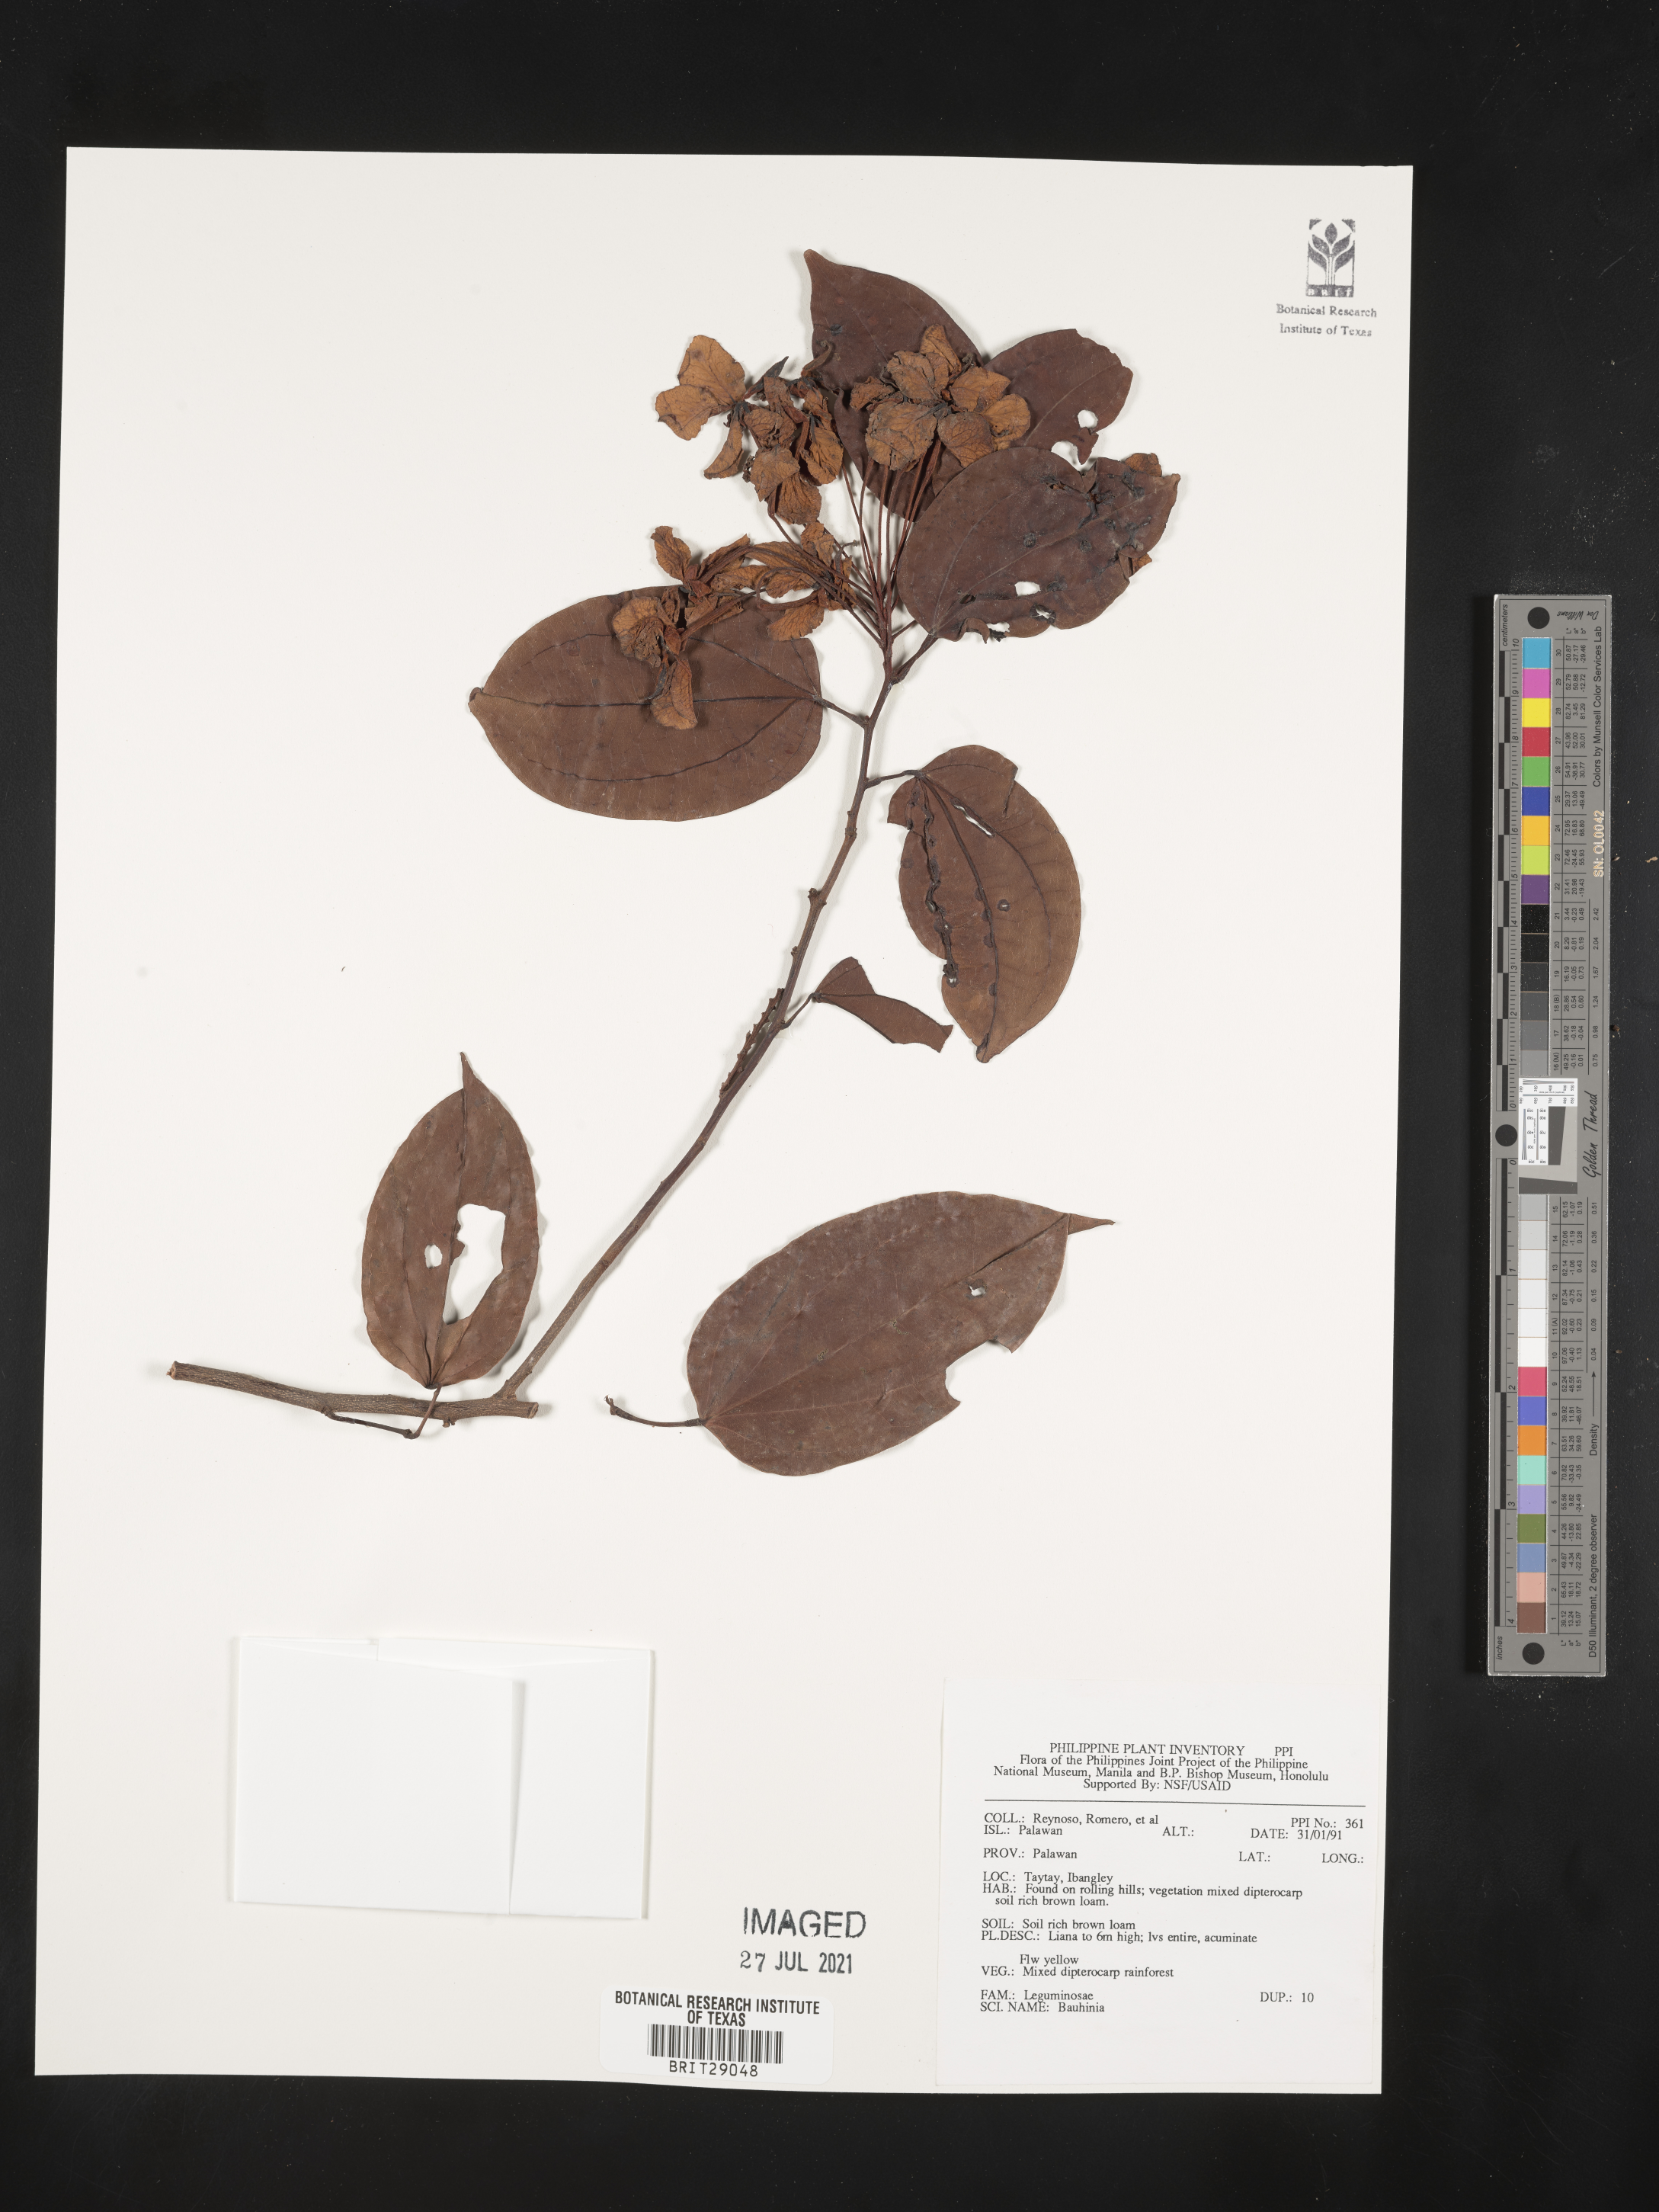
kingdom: Plantae
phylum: Tracheophyta
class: Magnoliopsida
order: Fabales
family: Fabaceae
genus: Bauhinia
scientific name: Bauhinia
